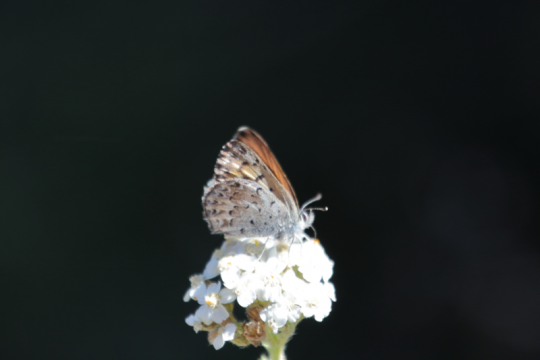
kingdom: Animalia
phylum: Arthropoda
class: Insecta
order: Lepidoptera
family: Lycaenidae
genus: Lycaena
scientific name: Lycaena mariposa
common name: Mariposa Copper
